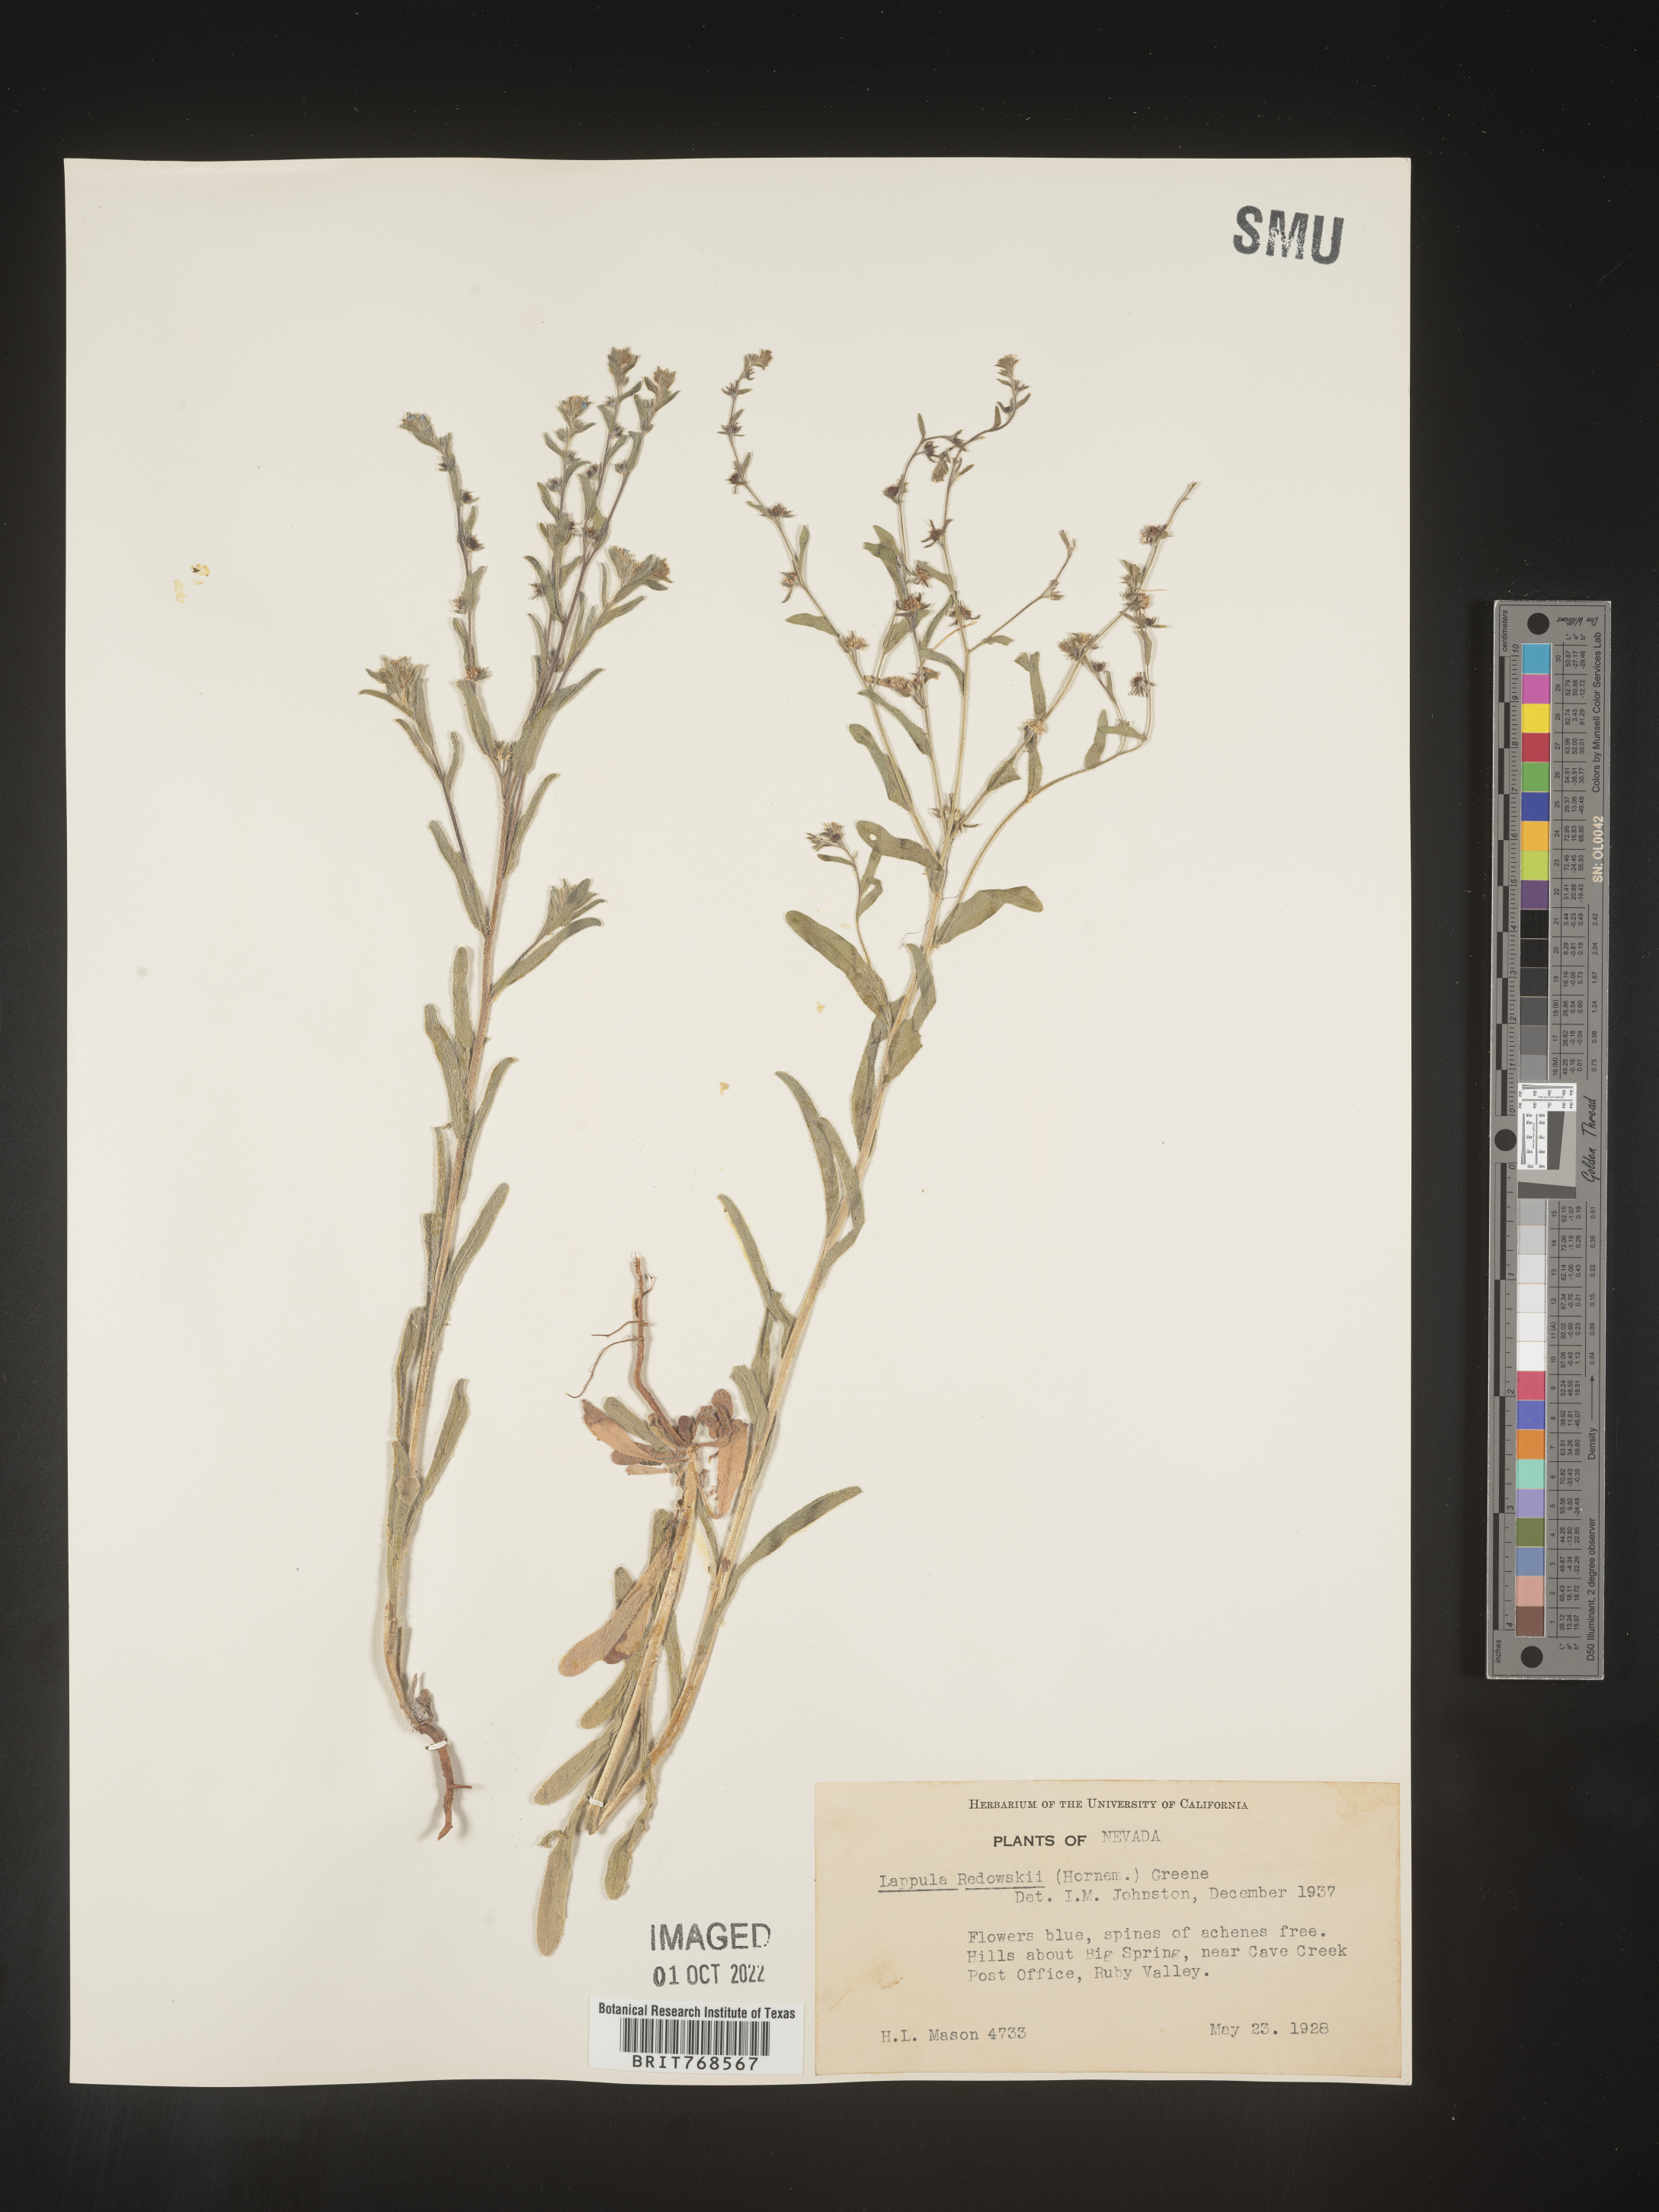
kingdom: Plantae
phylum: Tracheophyta
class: Magnoliopsida
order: Boraginales
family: Boraginaceae
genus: Lappula
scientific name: Lappula redowskii
